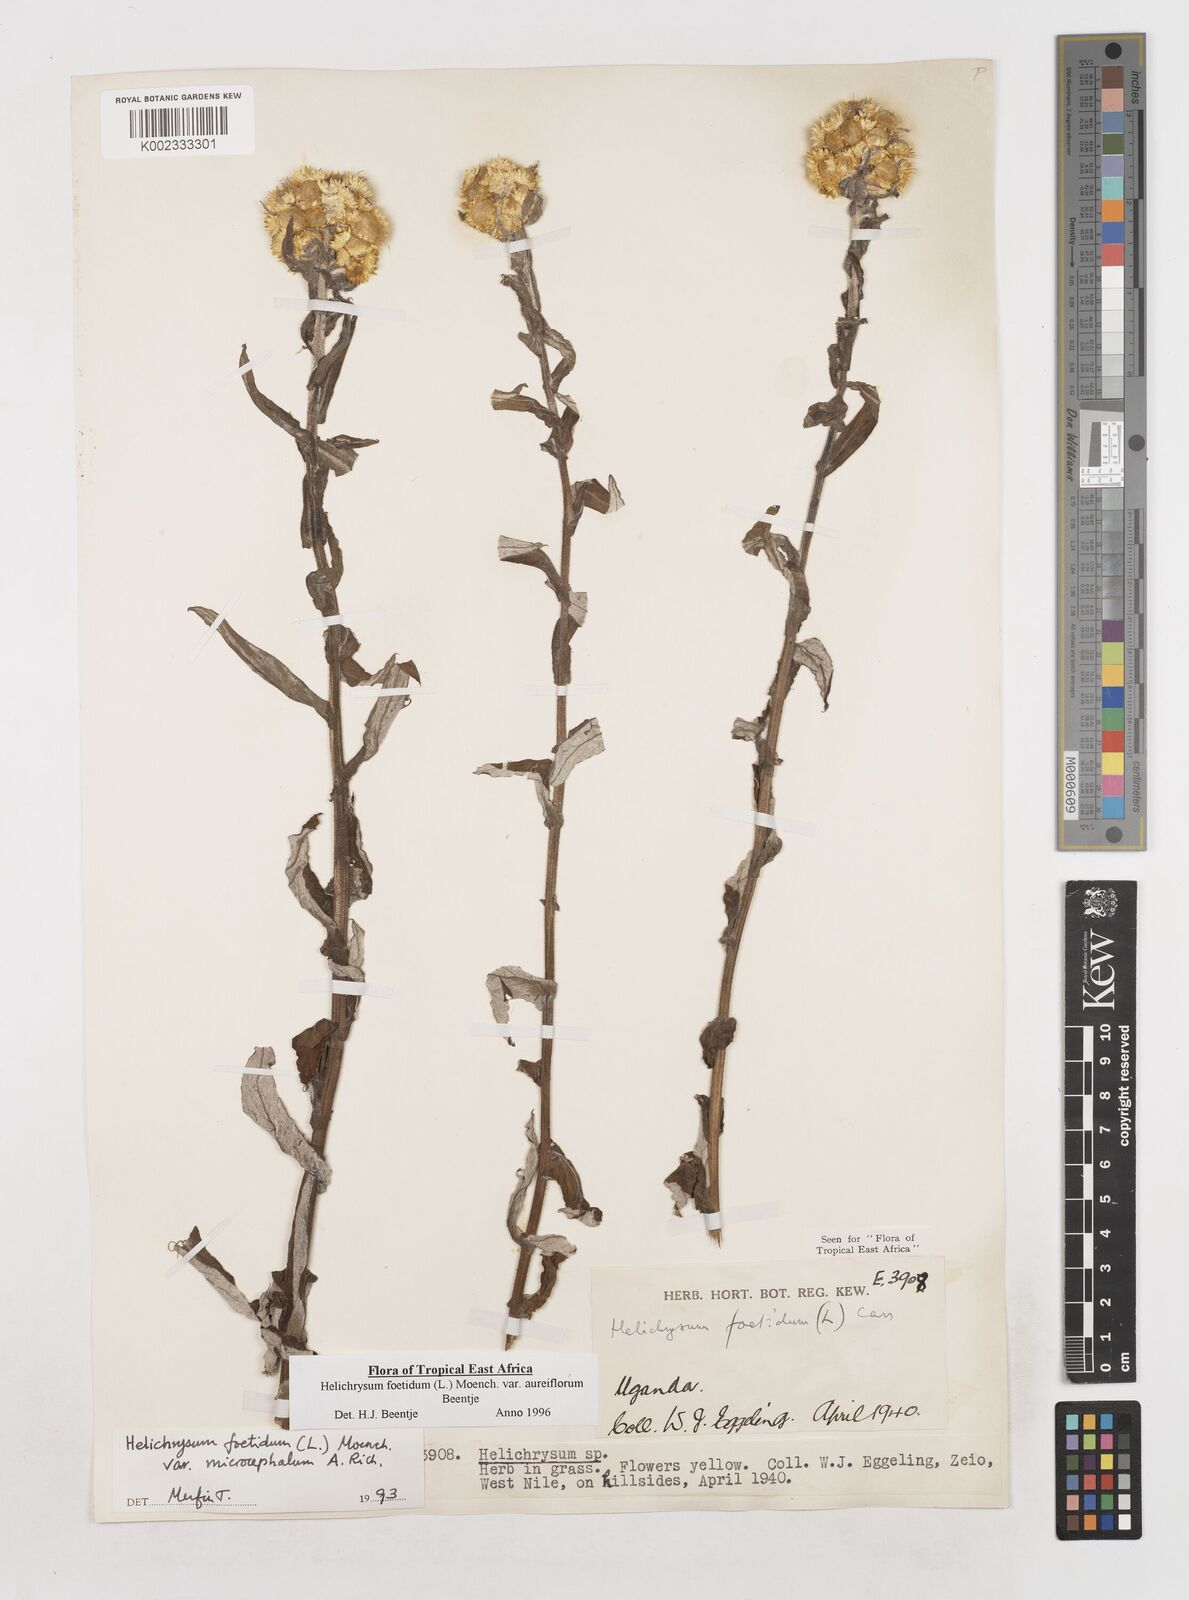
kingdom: Plantae
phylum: Tracheophyta
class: Magnoliopsida
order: Asterales
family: Asteraceae
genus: Helichrysum
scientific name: Helichrysum foetidum
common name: Stinking everlasting
